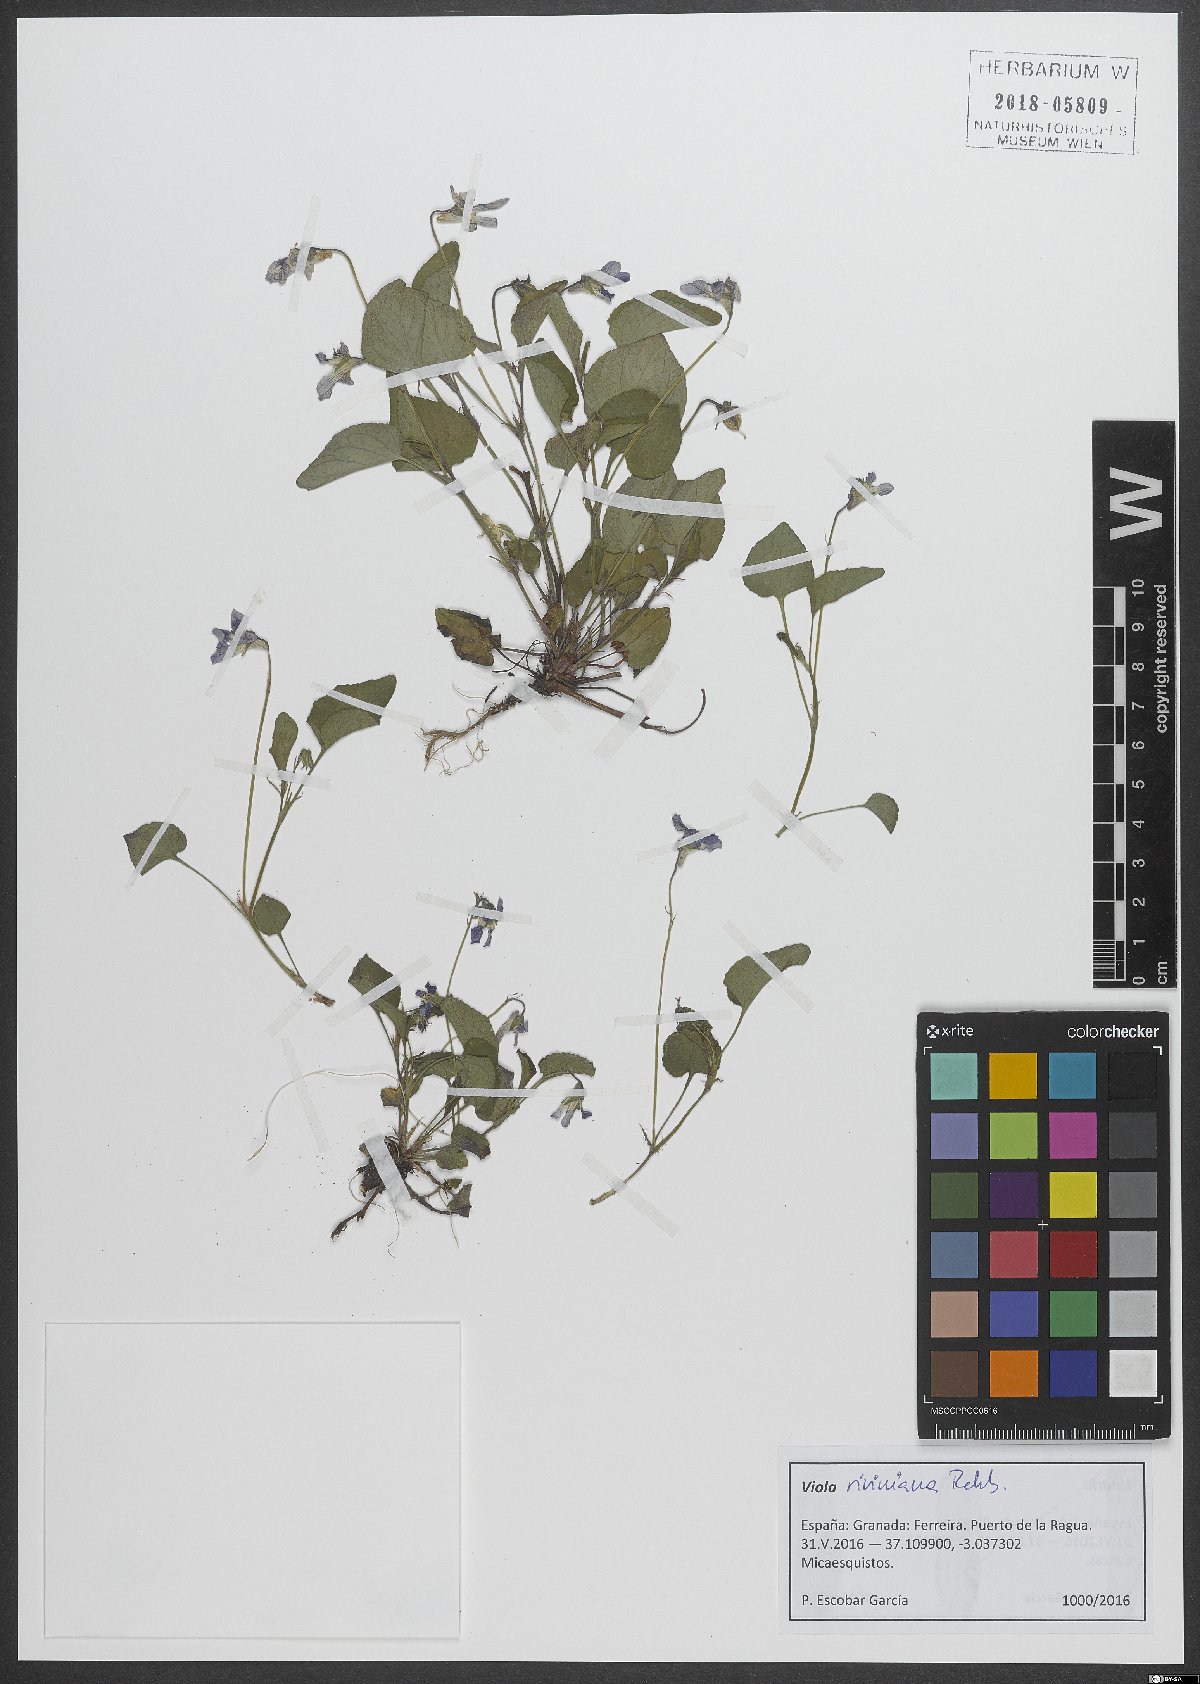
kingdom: Plantae
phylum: Tracheophyta
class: Magnoliopsida
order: Malpighiales
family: Violaceae
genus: Viola
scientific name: Viola riviniana
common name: Common dog-violet
